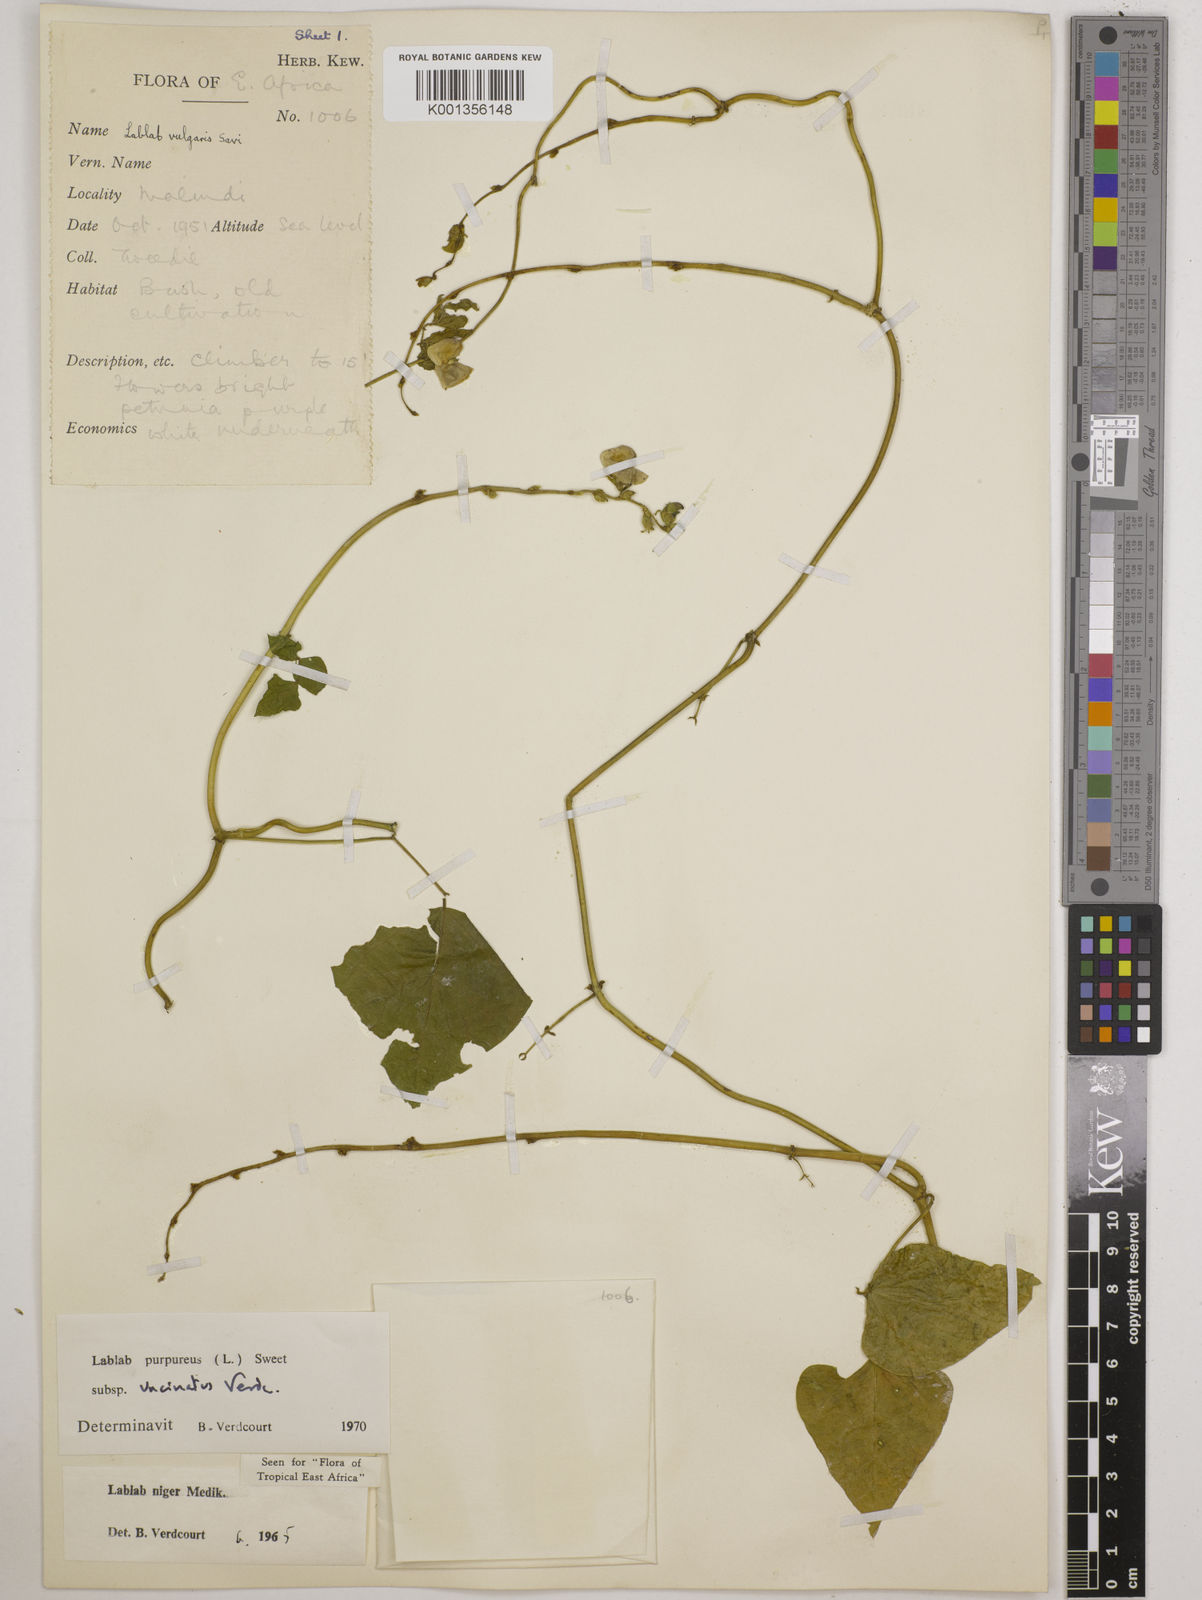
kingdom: Plantae
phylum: Tracheophyta
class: Magnoliopsida
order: Fabales
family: Fabaceae
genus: Lablab
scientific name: Lablab purpureus
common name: Lablab-bean
